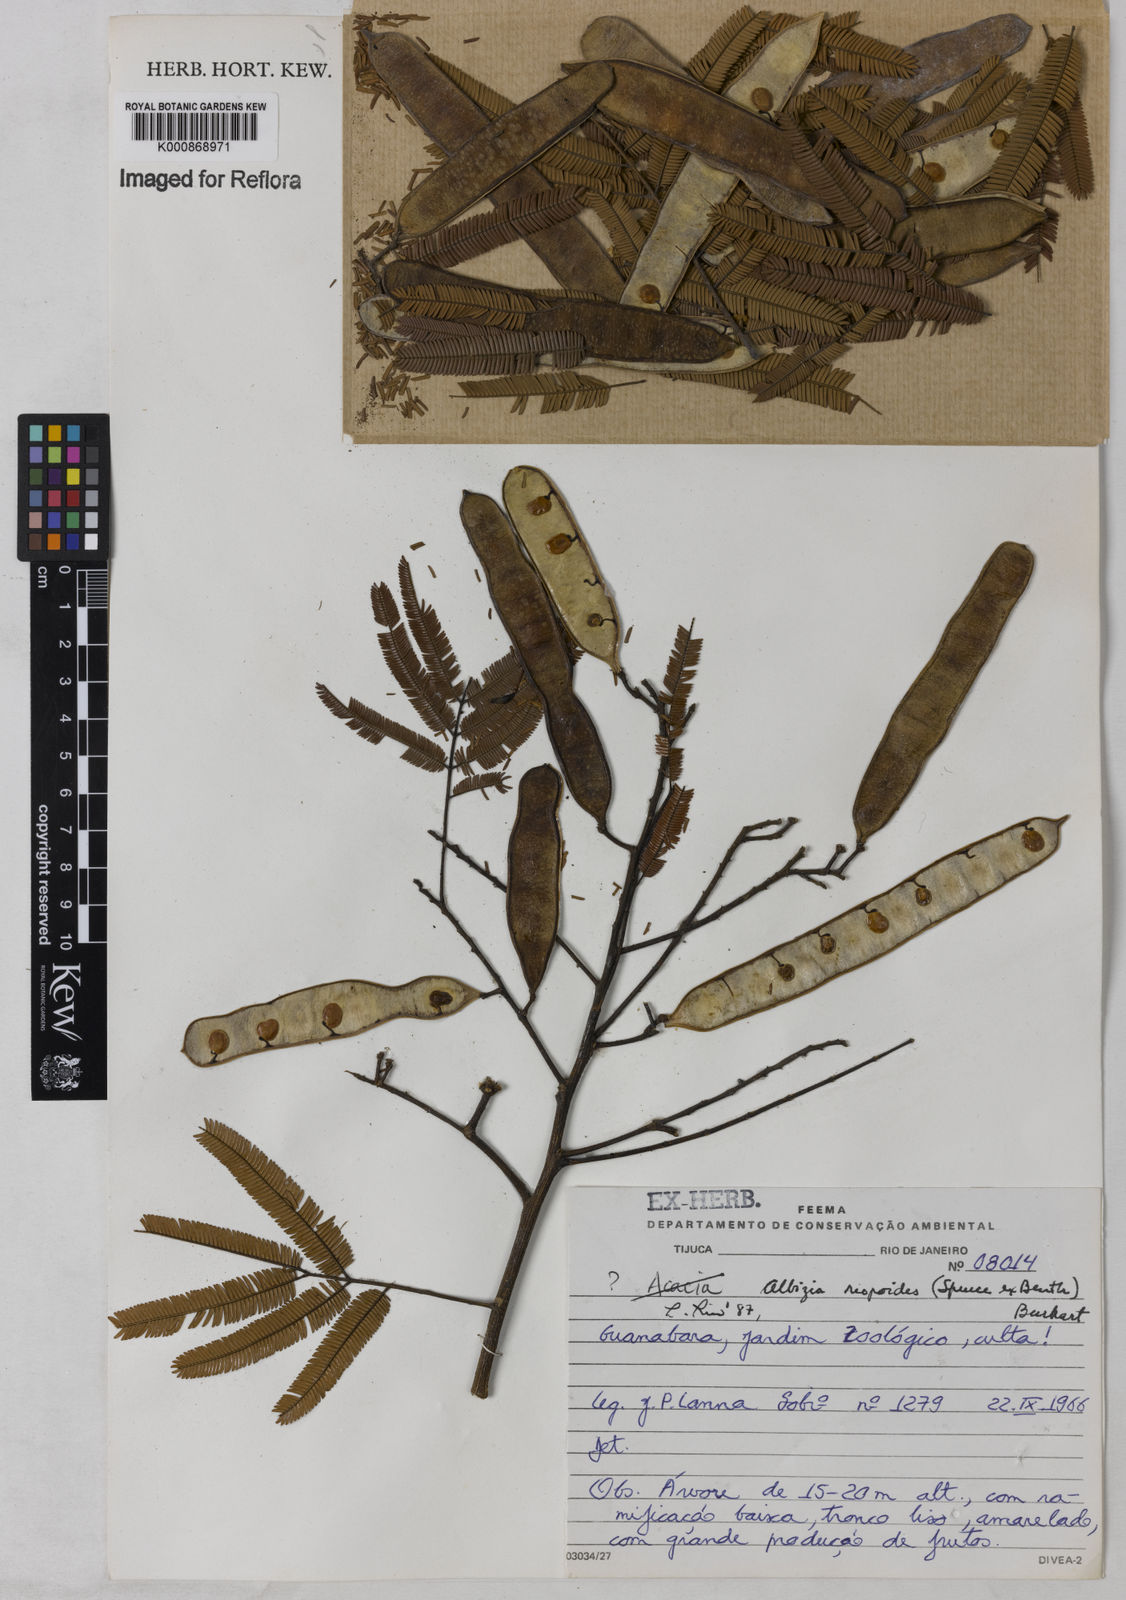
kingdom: Plantae
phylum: Tracheophyta
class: Magnoliopsida
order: Fabales
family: Fabaceae
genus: Albizia
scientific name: Albizia niopoides
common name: Silk tree
